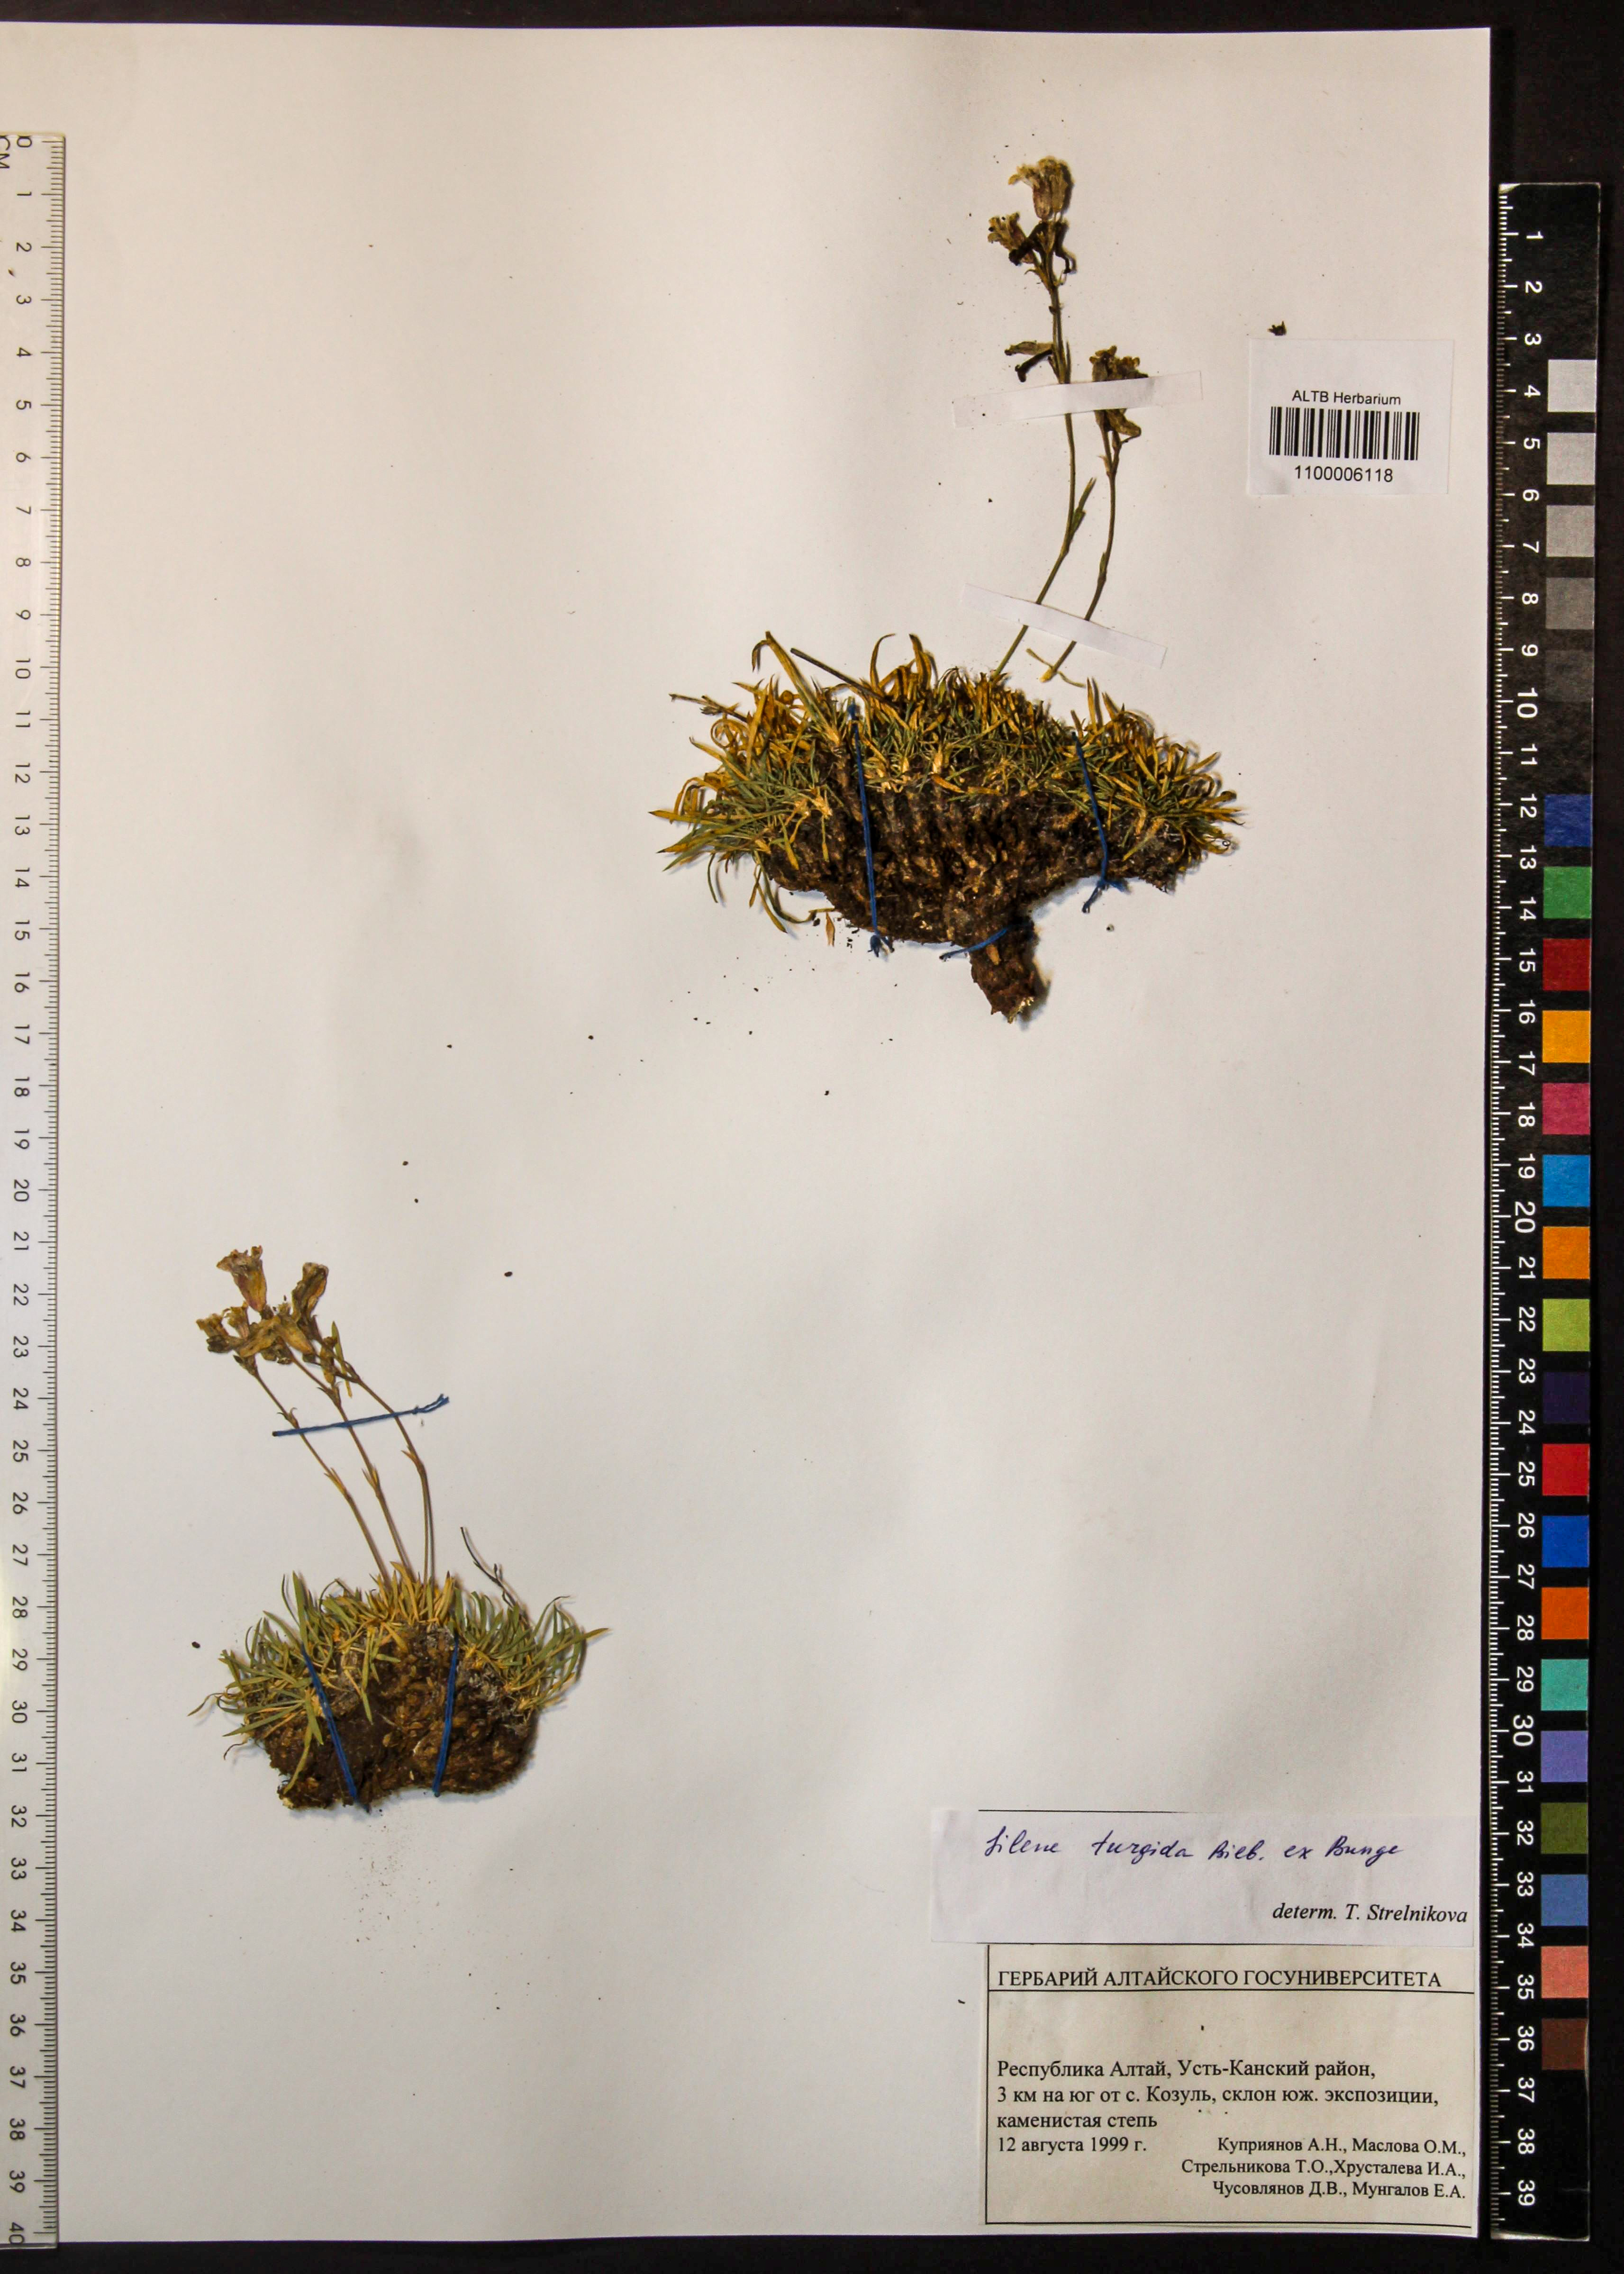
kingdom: Plantae
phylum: Tracheophyta
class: Magnoliopsida
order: Caryophyllales
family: Caryophyllaceae
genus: Silene
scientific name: Silene turgida
